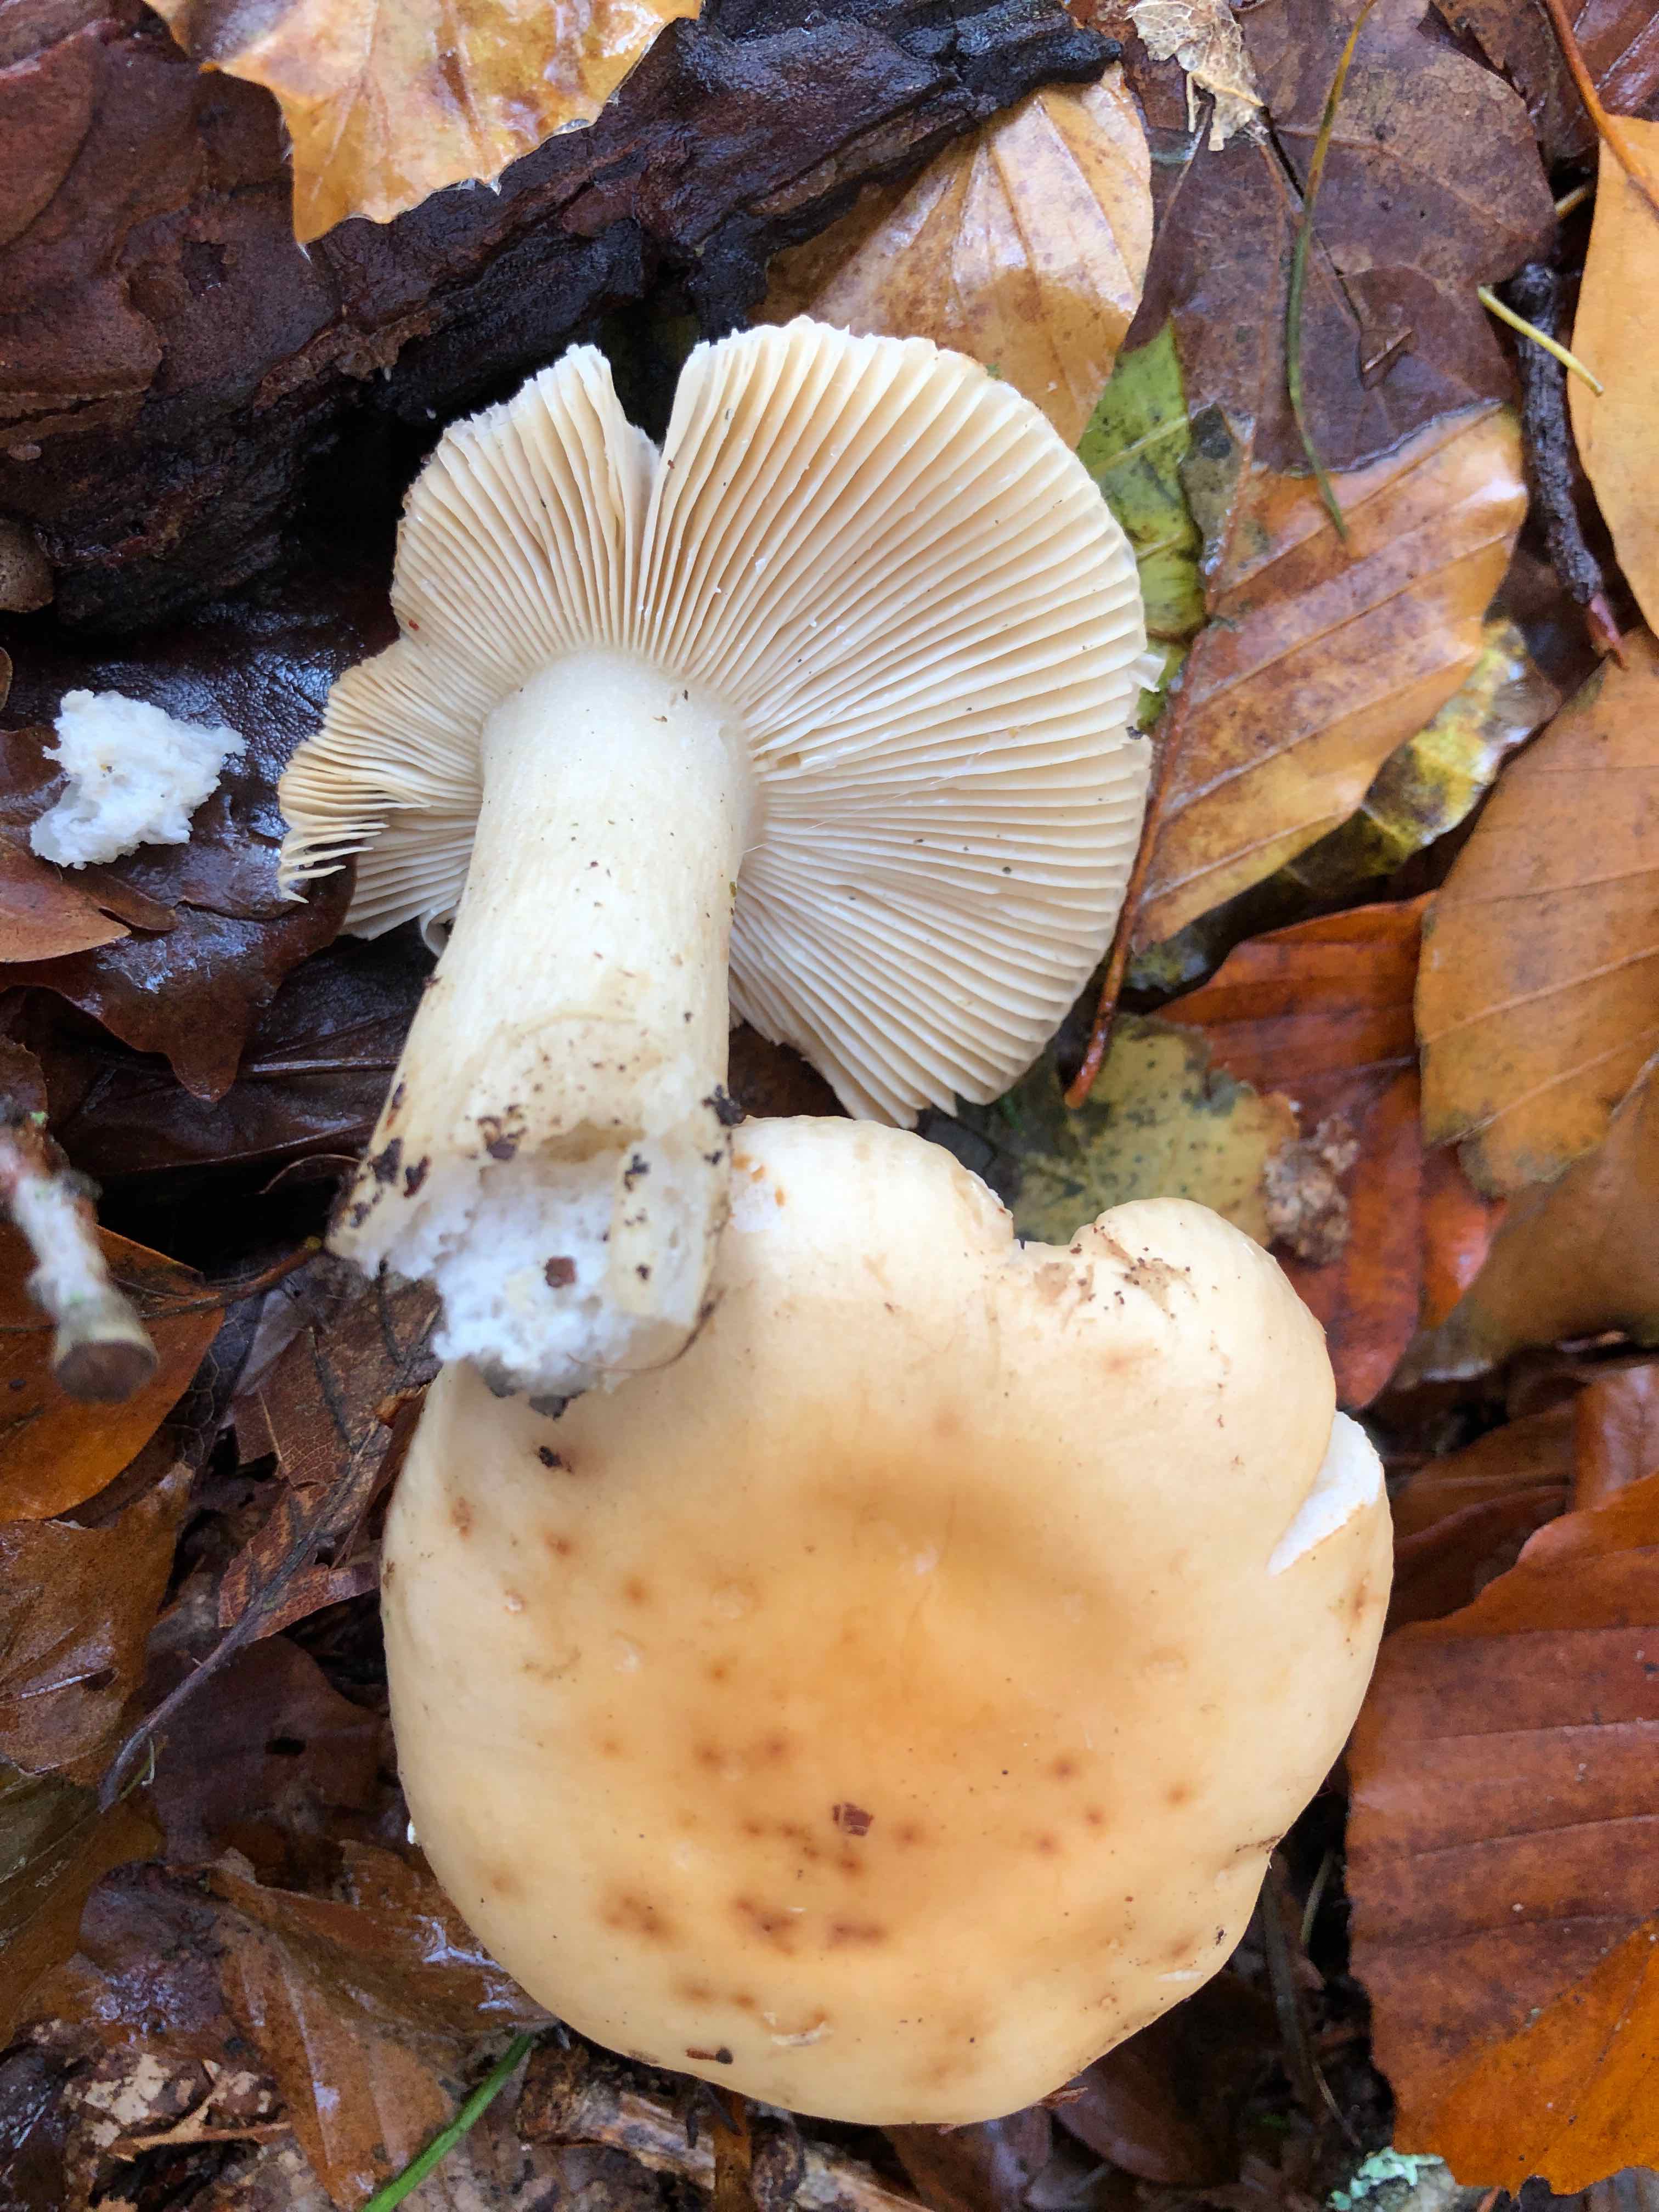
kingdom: Fungi
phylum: Basidiomycota
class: Agaricomycetes
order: Russulales
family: Russulaceae
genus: Russula
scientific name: Russula fellea
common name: galde-skørhat
